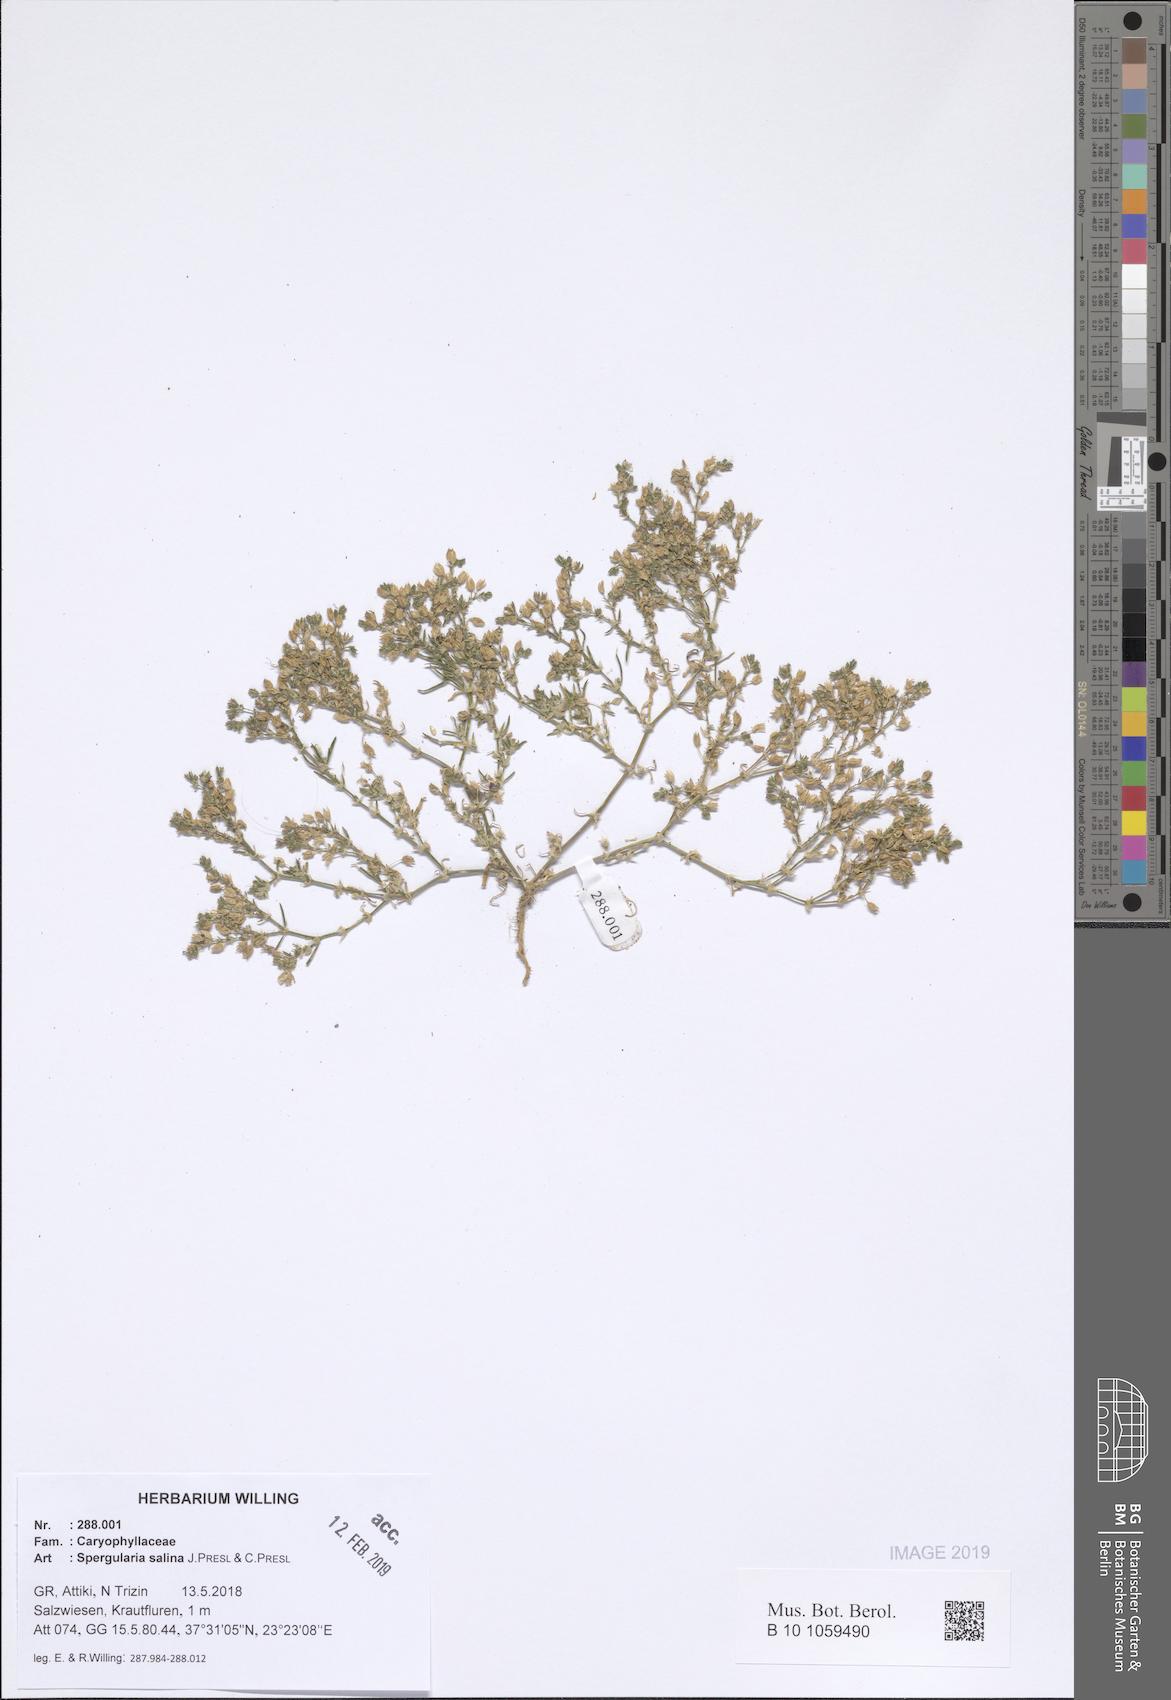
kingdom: Plantae
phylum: Tracheophyta
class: Magnoliopsida
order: Caryophyllales
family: Caryophyllaceae
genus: Spergularia
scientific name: Spergularia marina
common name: Lesser sea-spurrey
